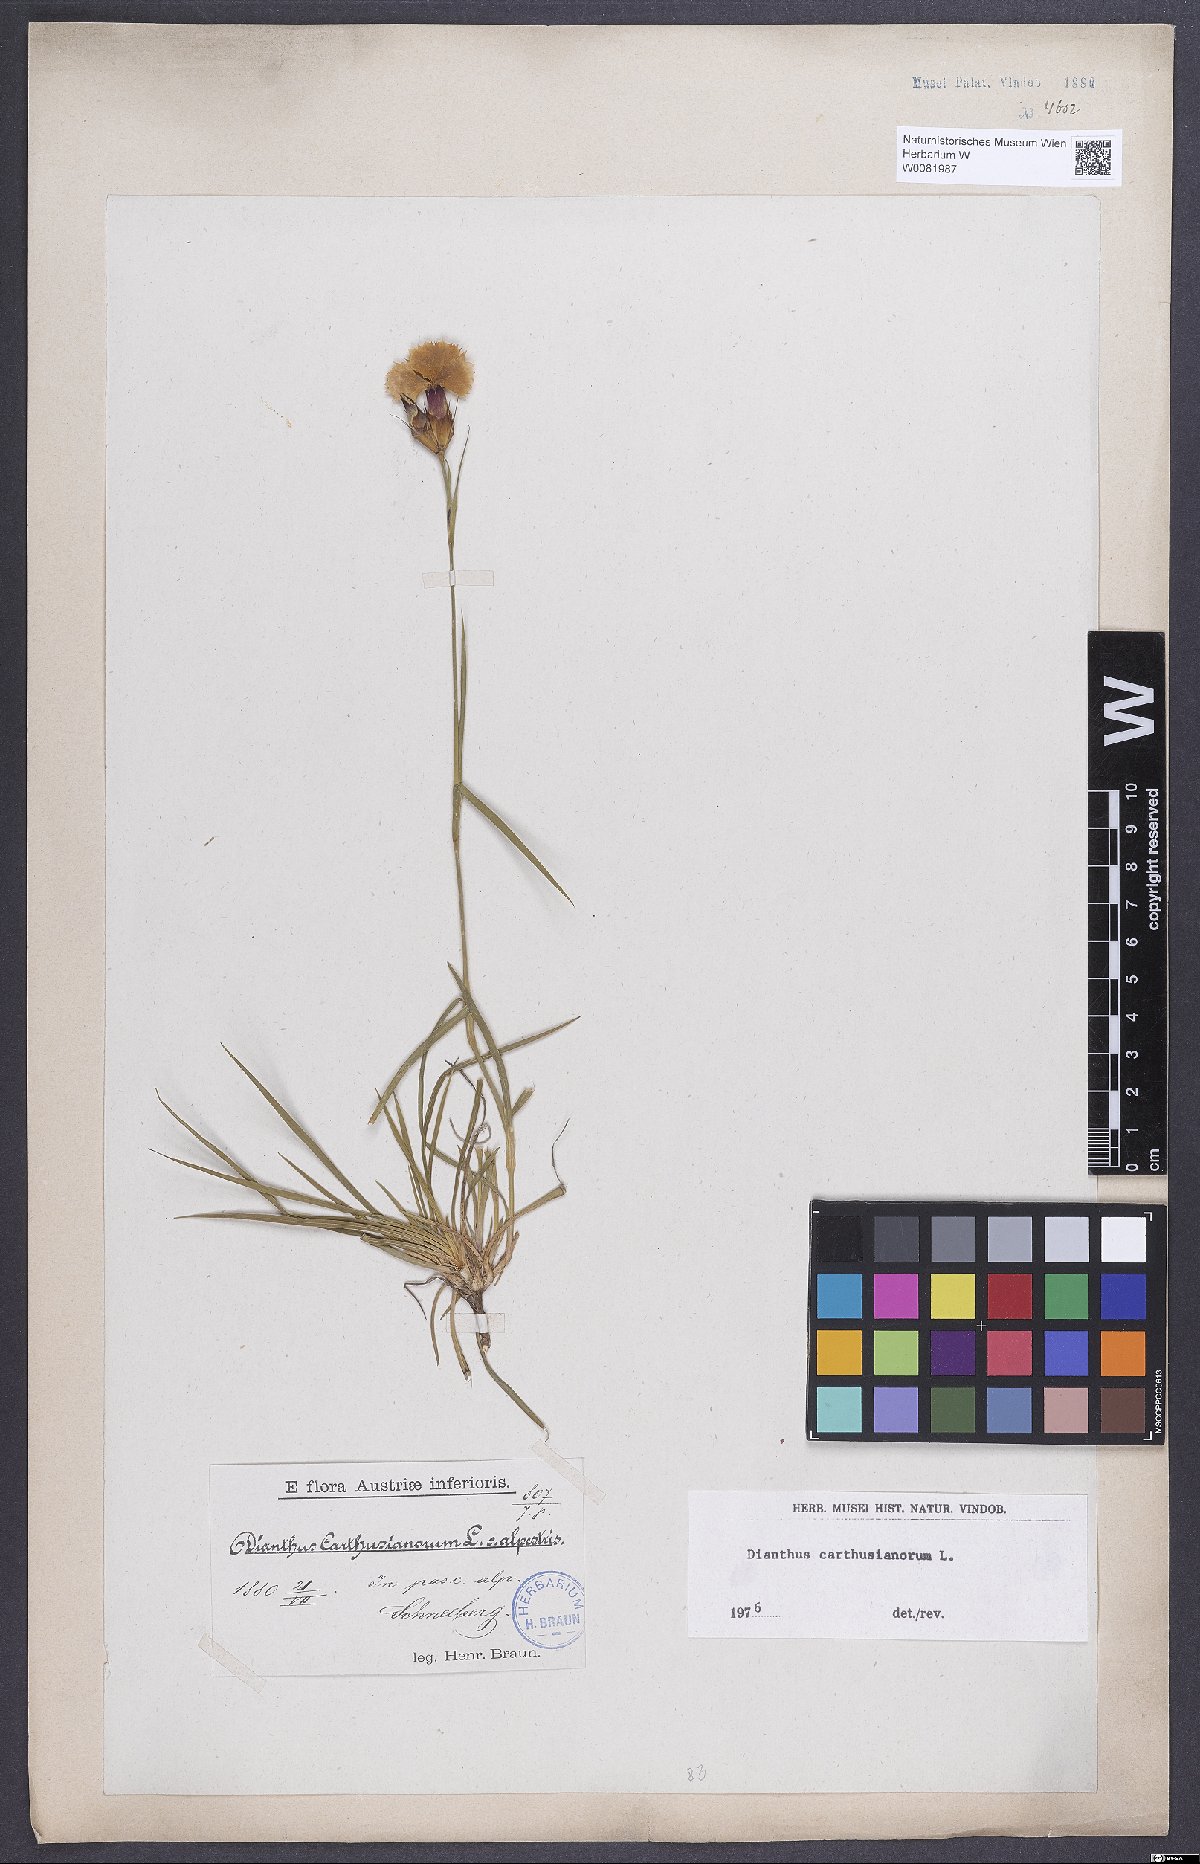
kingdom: Plantae
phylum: Tracheophyta
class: Magnoliopsida
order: Caryophyllales
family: Caryophyllaceae
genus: Dianthus
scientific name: Dianthus carthusianorum
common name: Carthusian pink
